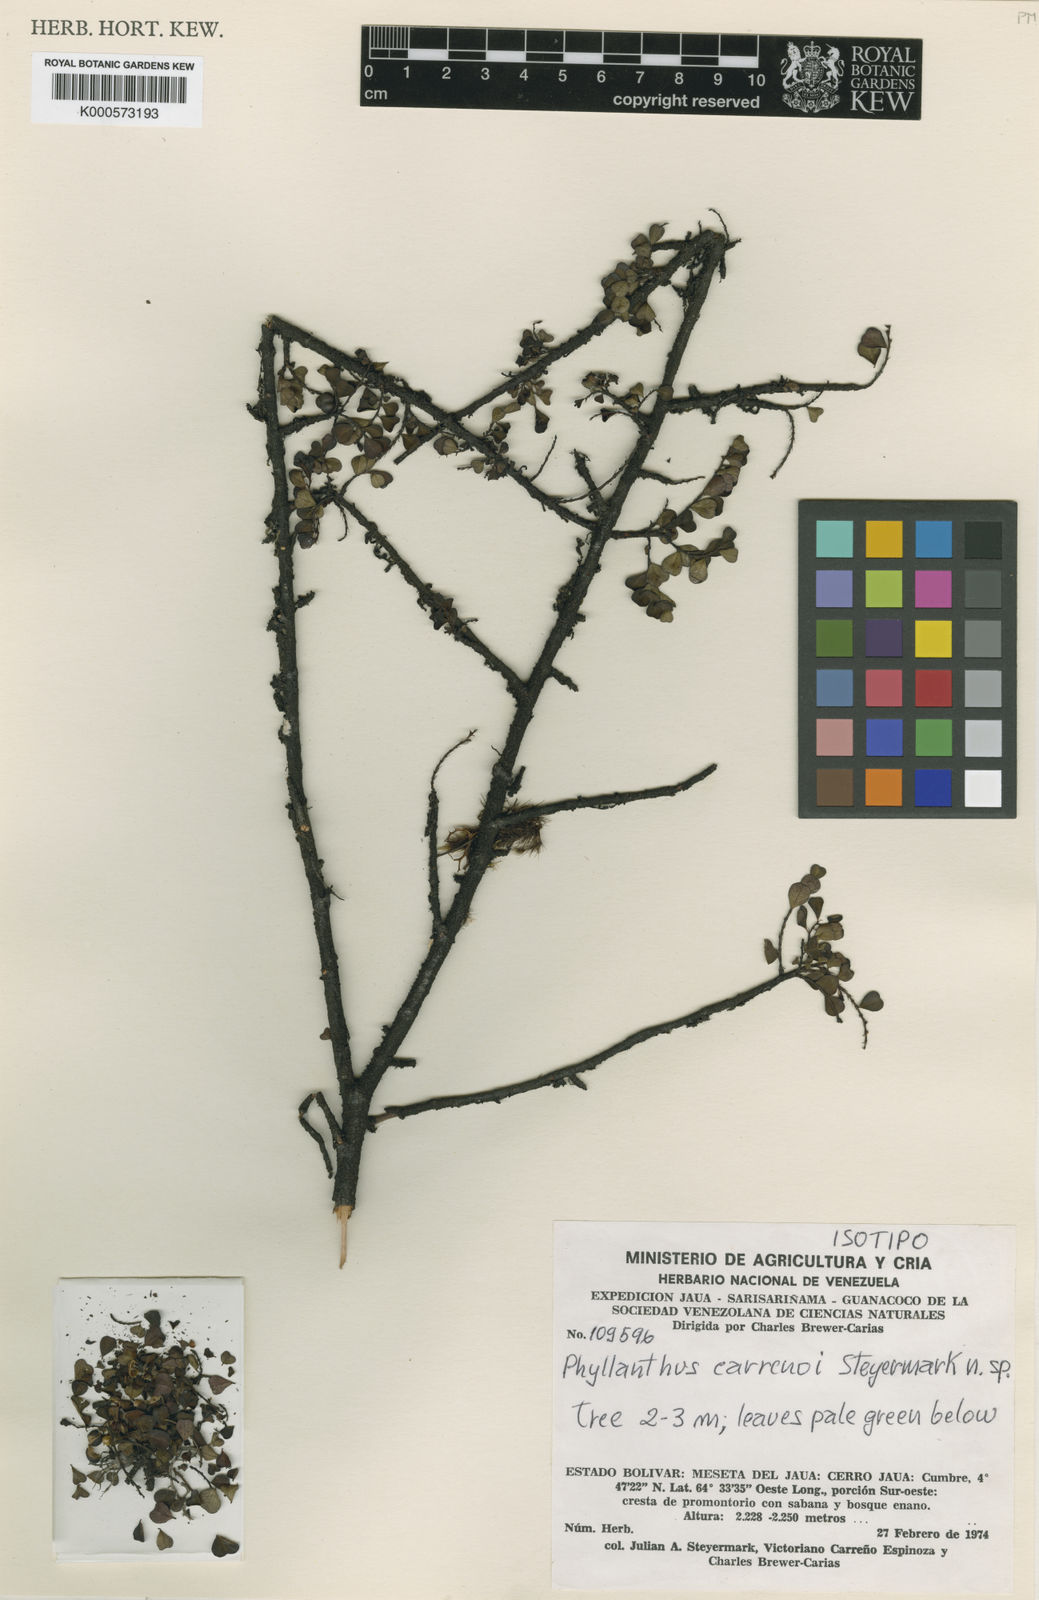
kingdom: Plantae
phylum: Tracheophyta
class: Magnoliopsida
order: Malpighiales
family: Phyllanthaceae
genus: Phyllanthus
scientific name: Phyllanthus carrenoi
